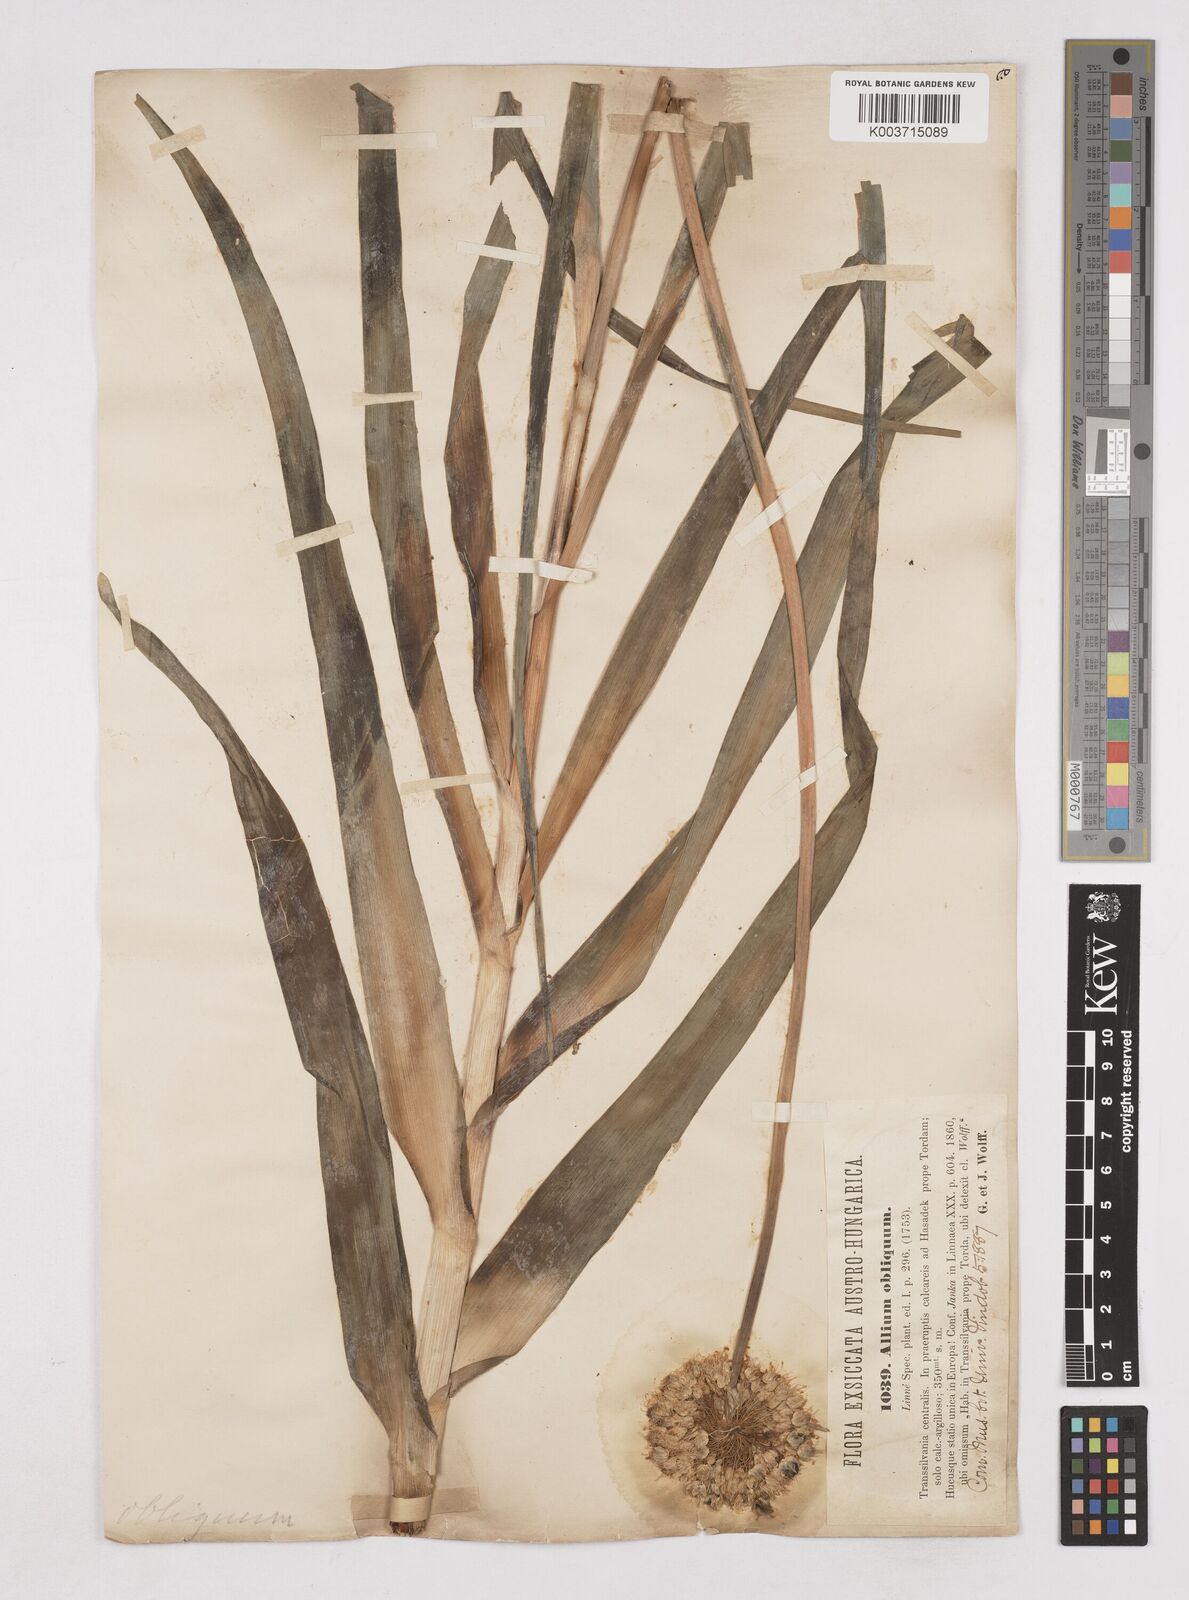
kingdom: Plantae
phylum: Tracheophyta
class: Liliopsida
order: Asparagales
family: Amaryllidaceae
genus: Allium
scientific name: Allium obliquum
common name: Oblique onion
